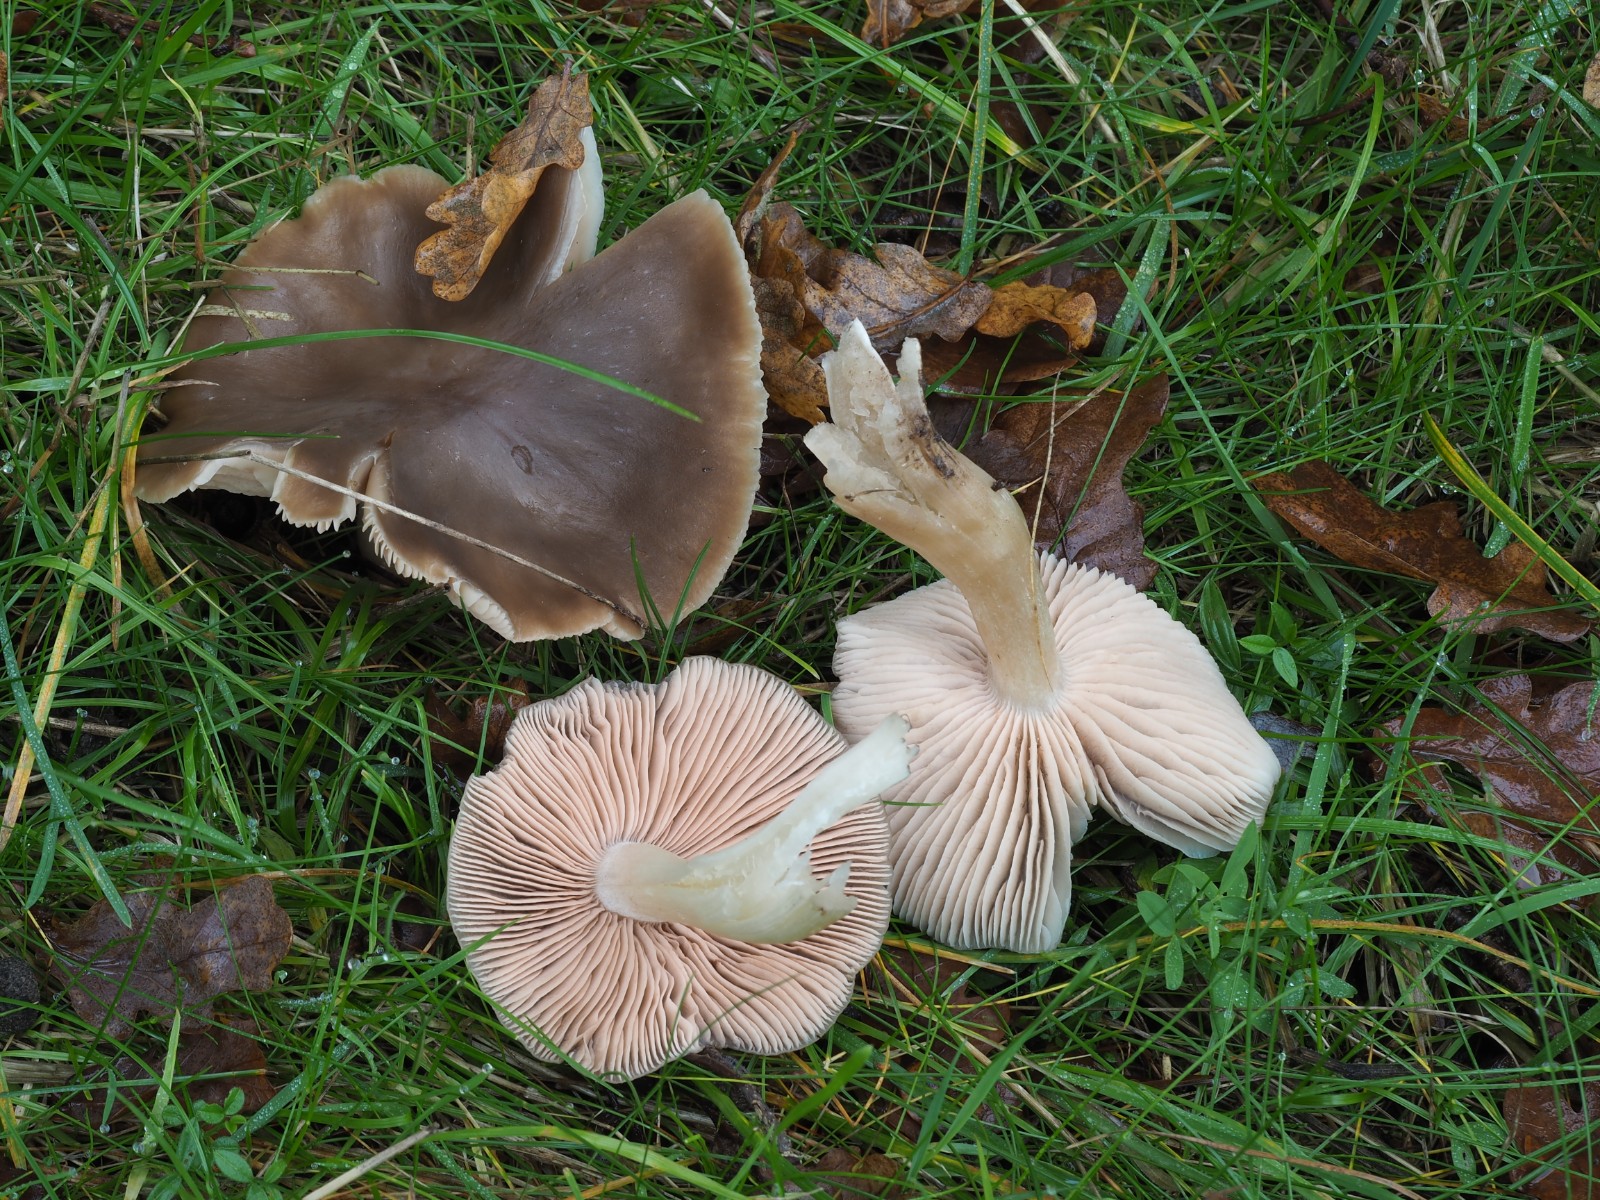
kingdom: Fungi
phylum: Basidiomycota
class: Agaricomycetes
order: Agaricales
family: Entolomataceae
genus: Entoloma
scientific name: Entoloma lividoalbum
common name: lysstokket rødblad
